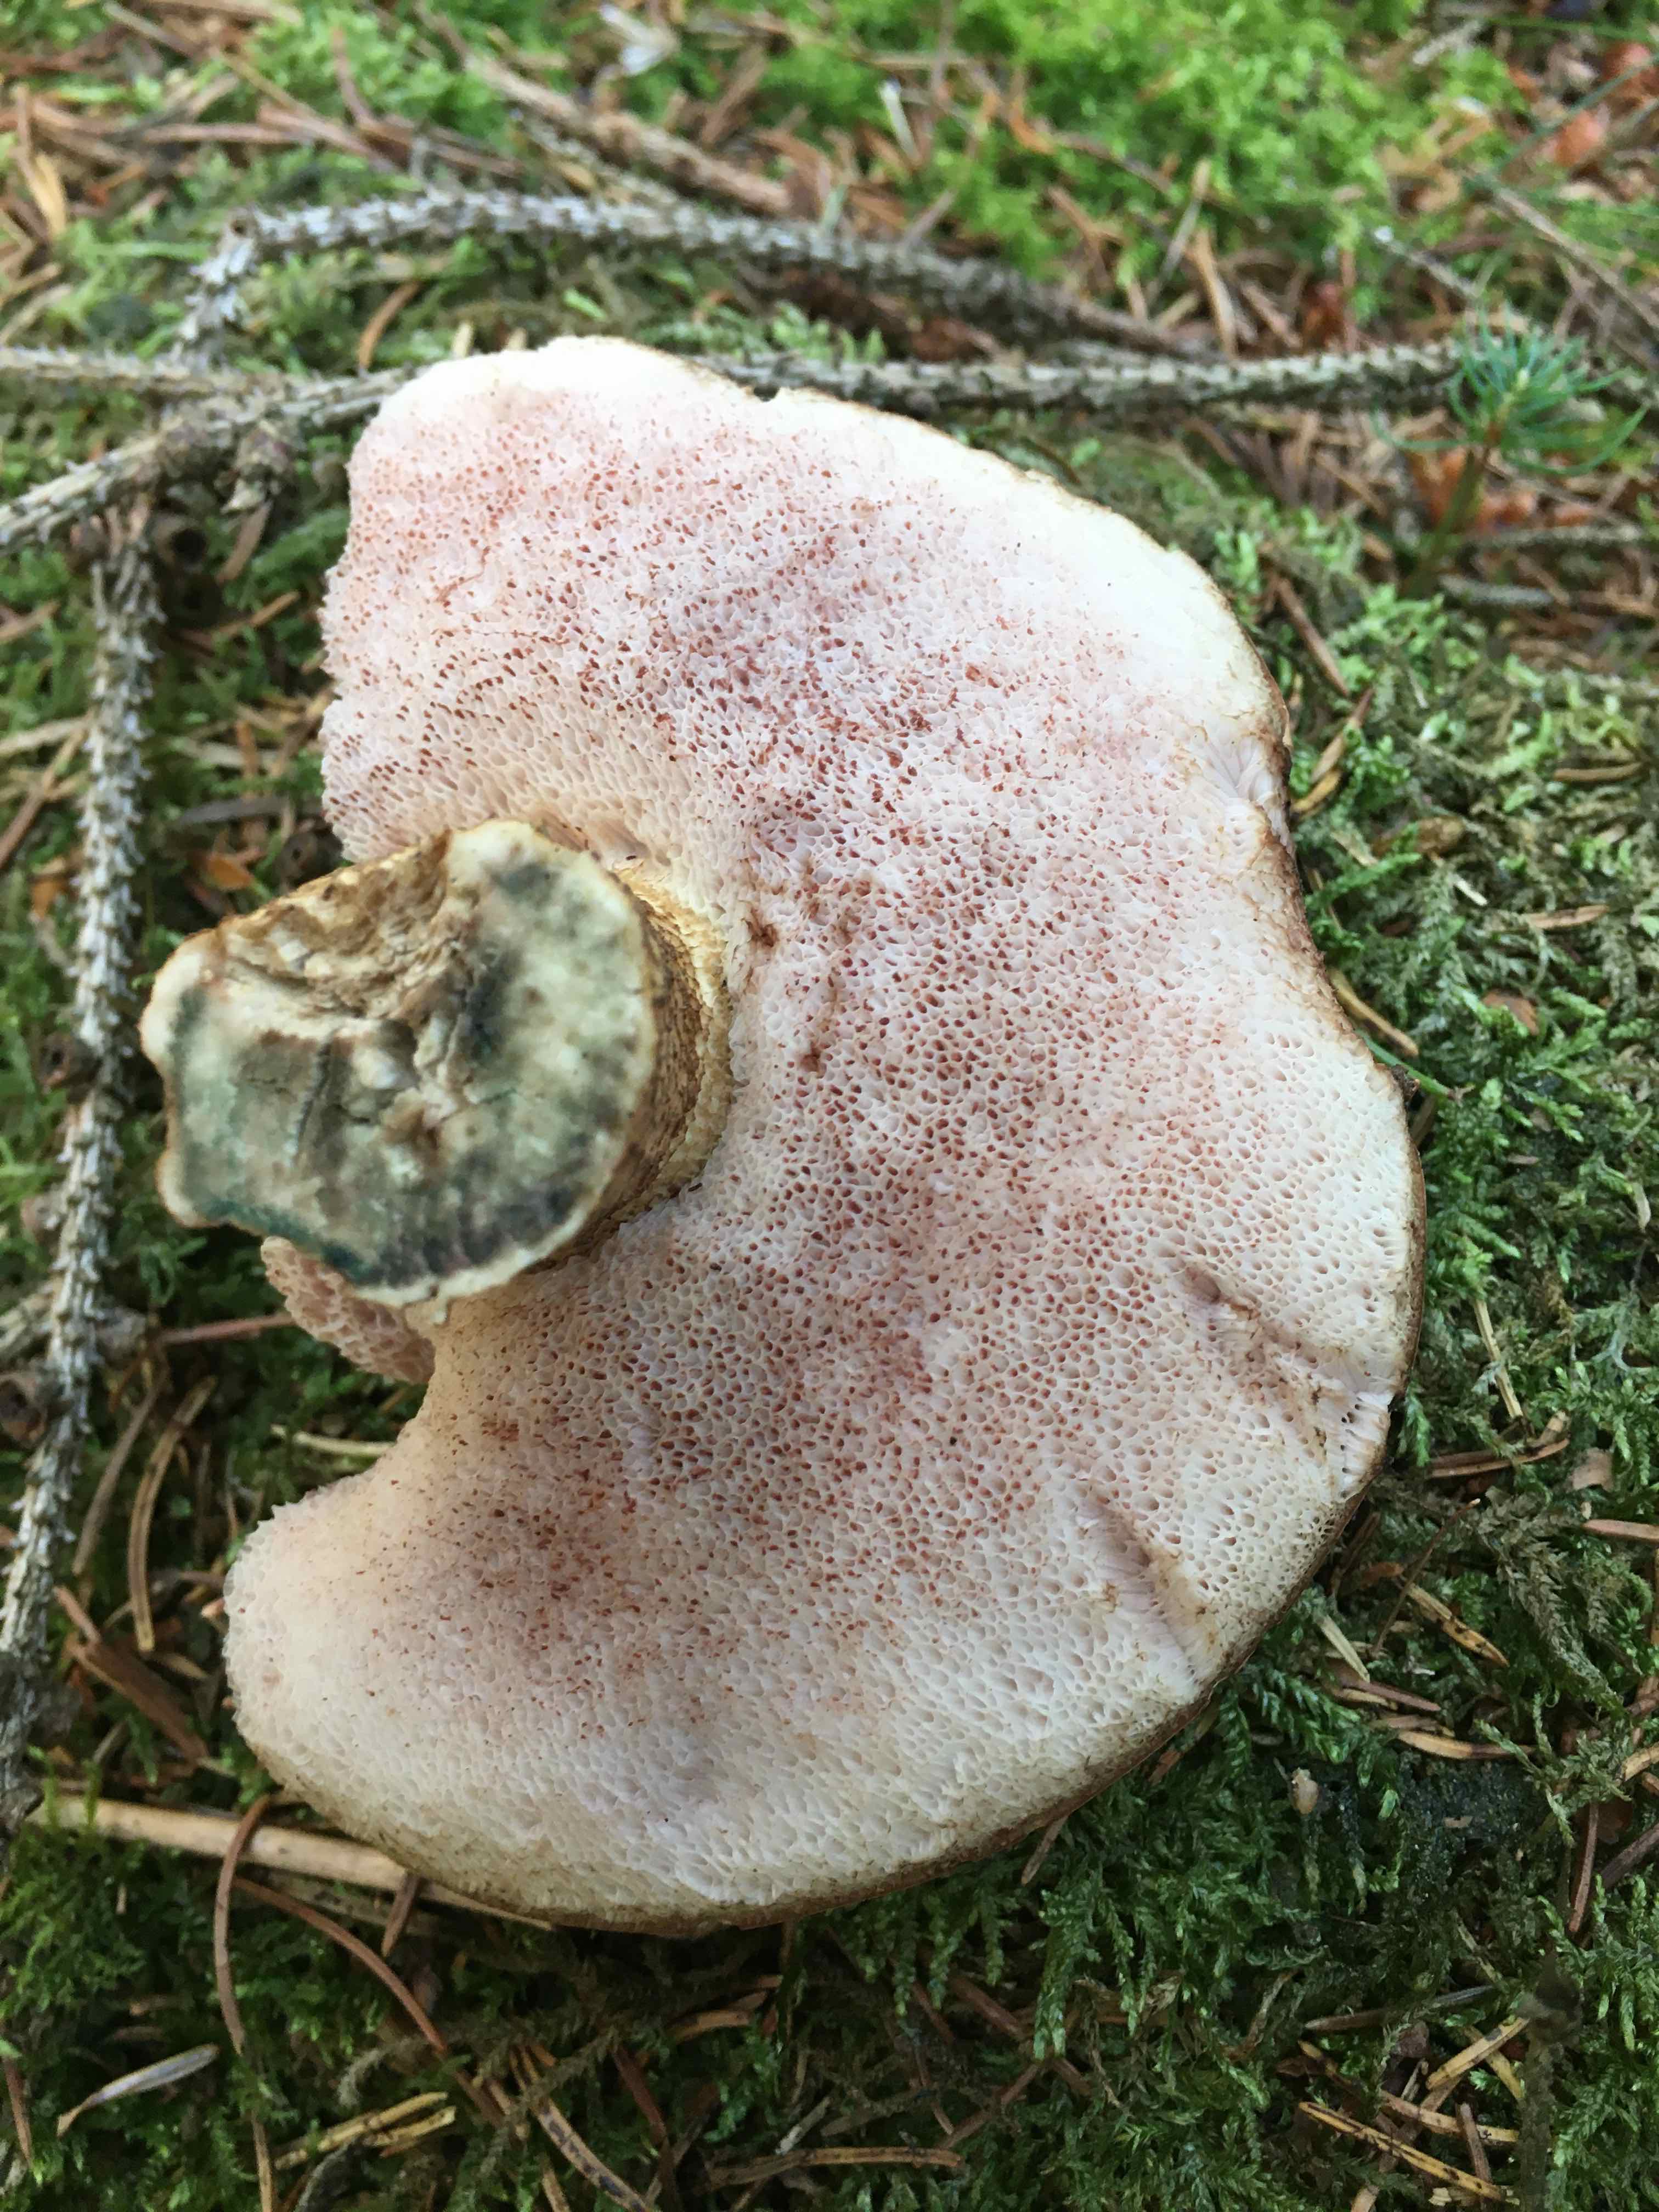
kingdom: Fungi
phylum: Basidiomycota
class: Agaricomycetes
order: Boletales
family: Boletaceae
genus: Tylopilus
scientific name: Tylopilus felleus
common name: galderørhat
